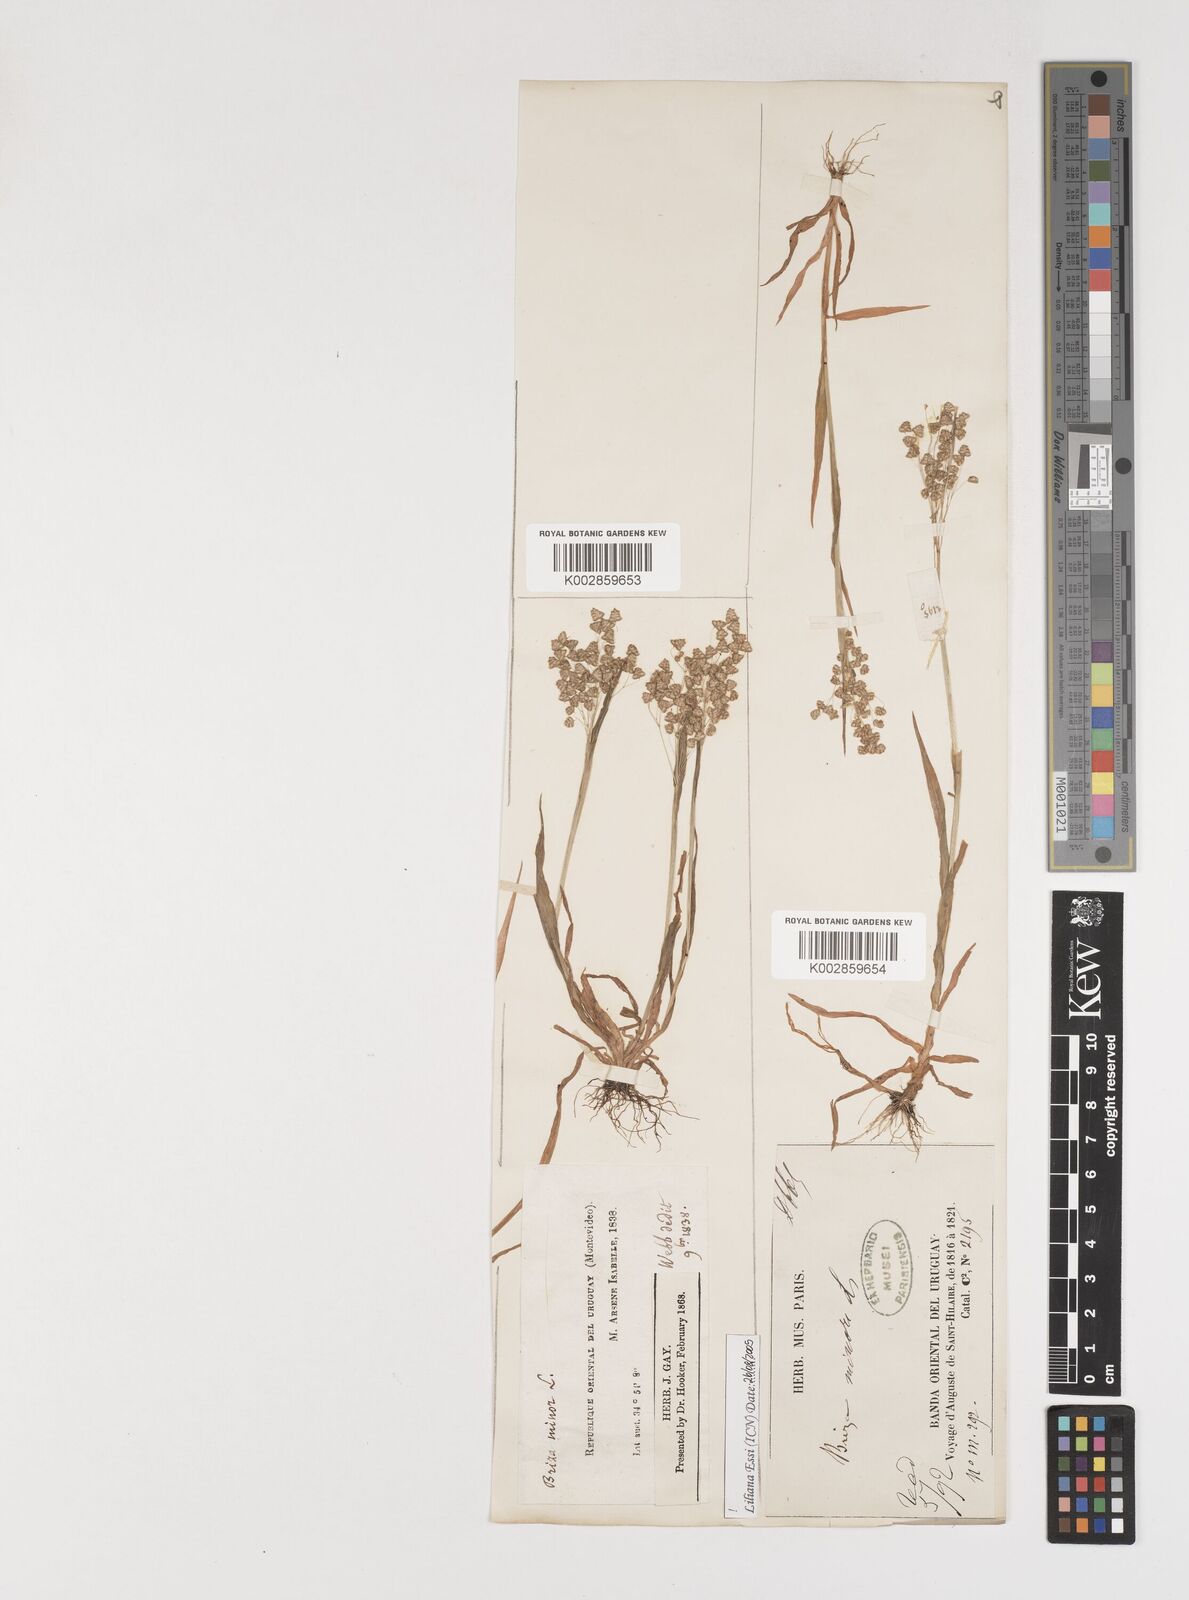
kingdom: Plantae
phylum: Tracheophyta
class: Liliopsida
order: Poales
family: Poaceae
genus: Briza
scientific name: Briza minor
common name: Lesser quaking-grass
